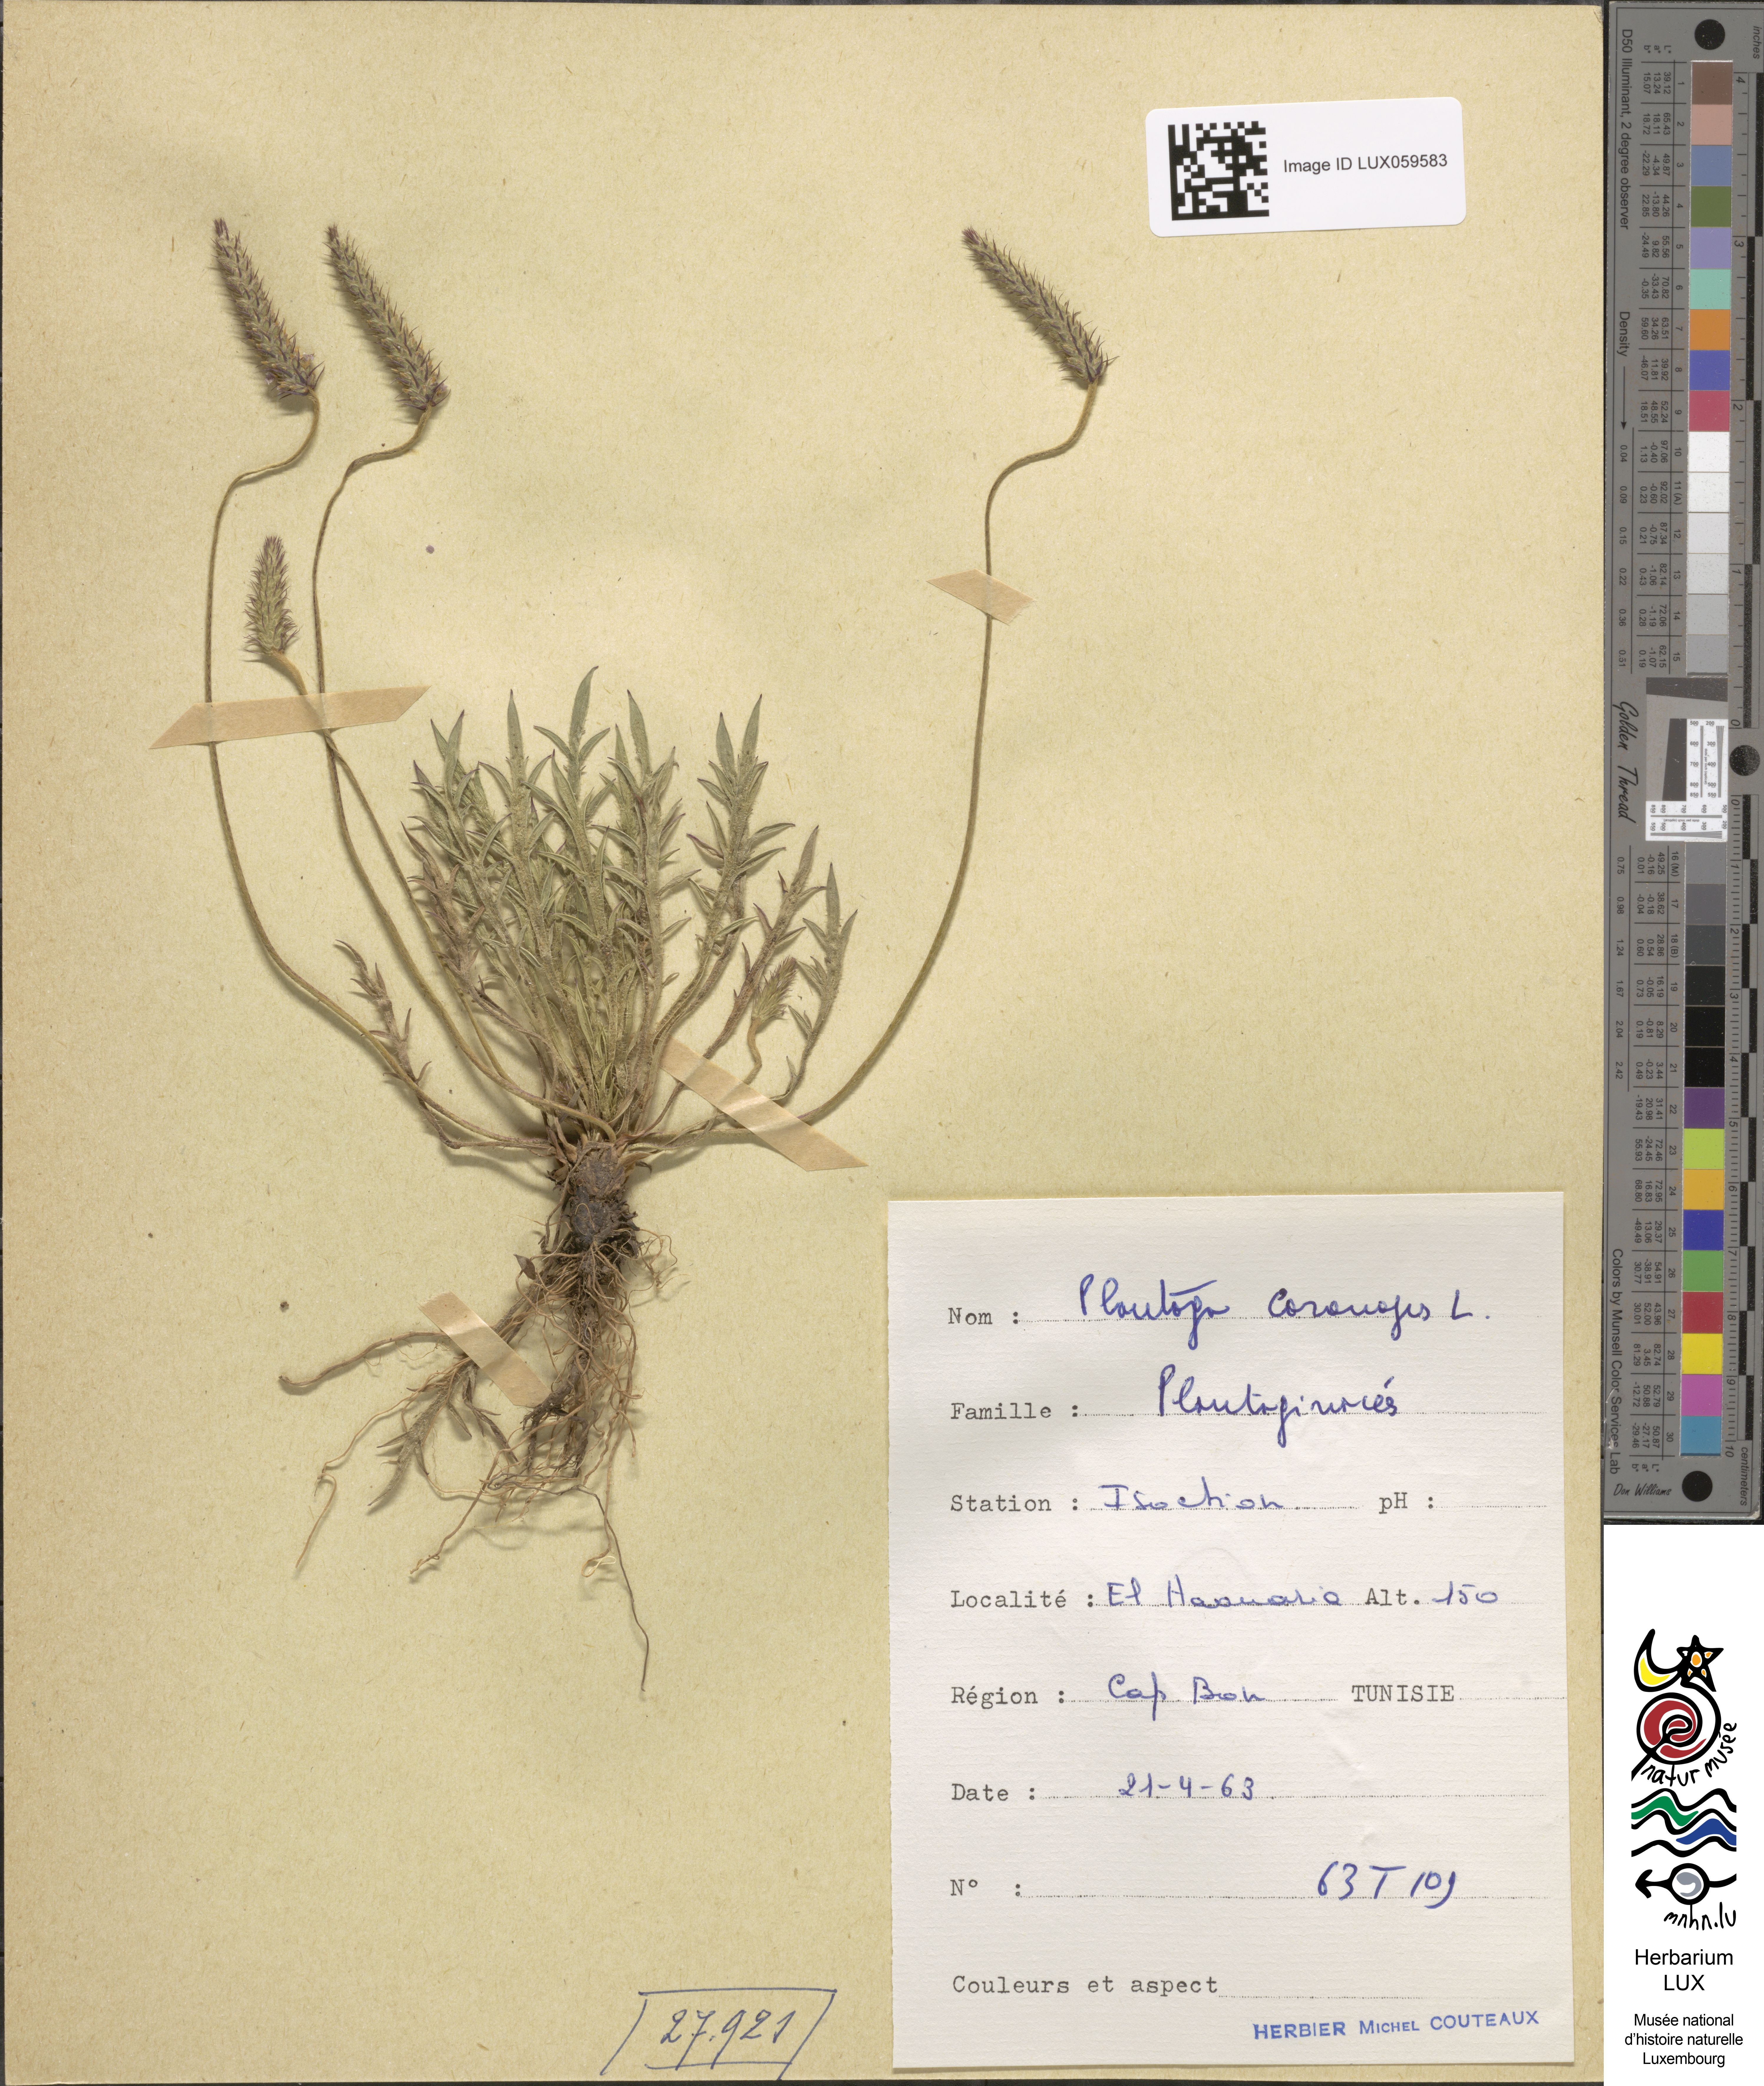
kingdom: Plantae
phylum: Tracheophyta
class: Magnoliopsida
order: Lamiales
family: Plantaginaceae
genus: Plantago
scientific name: Plantago coronopus
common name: Buck's-horn plantain
